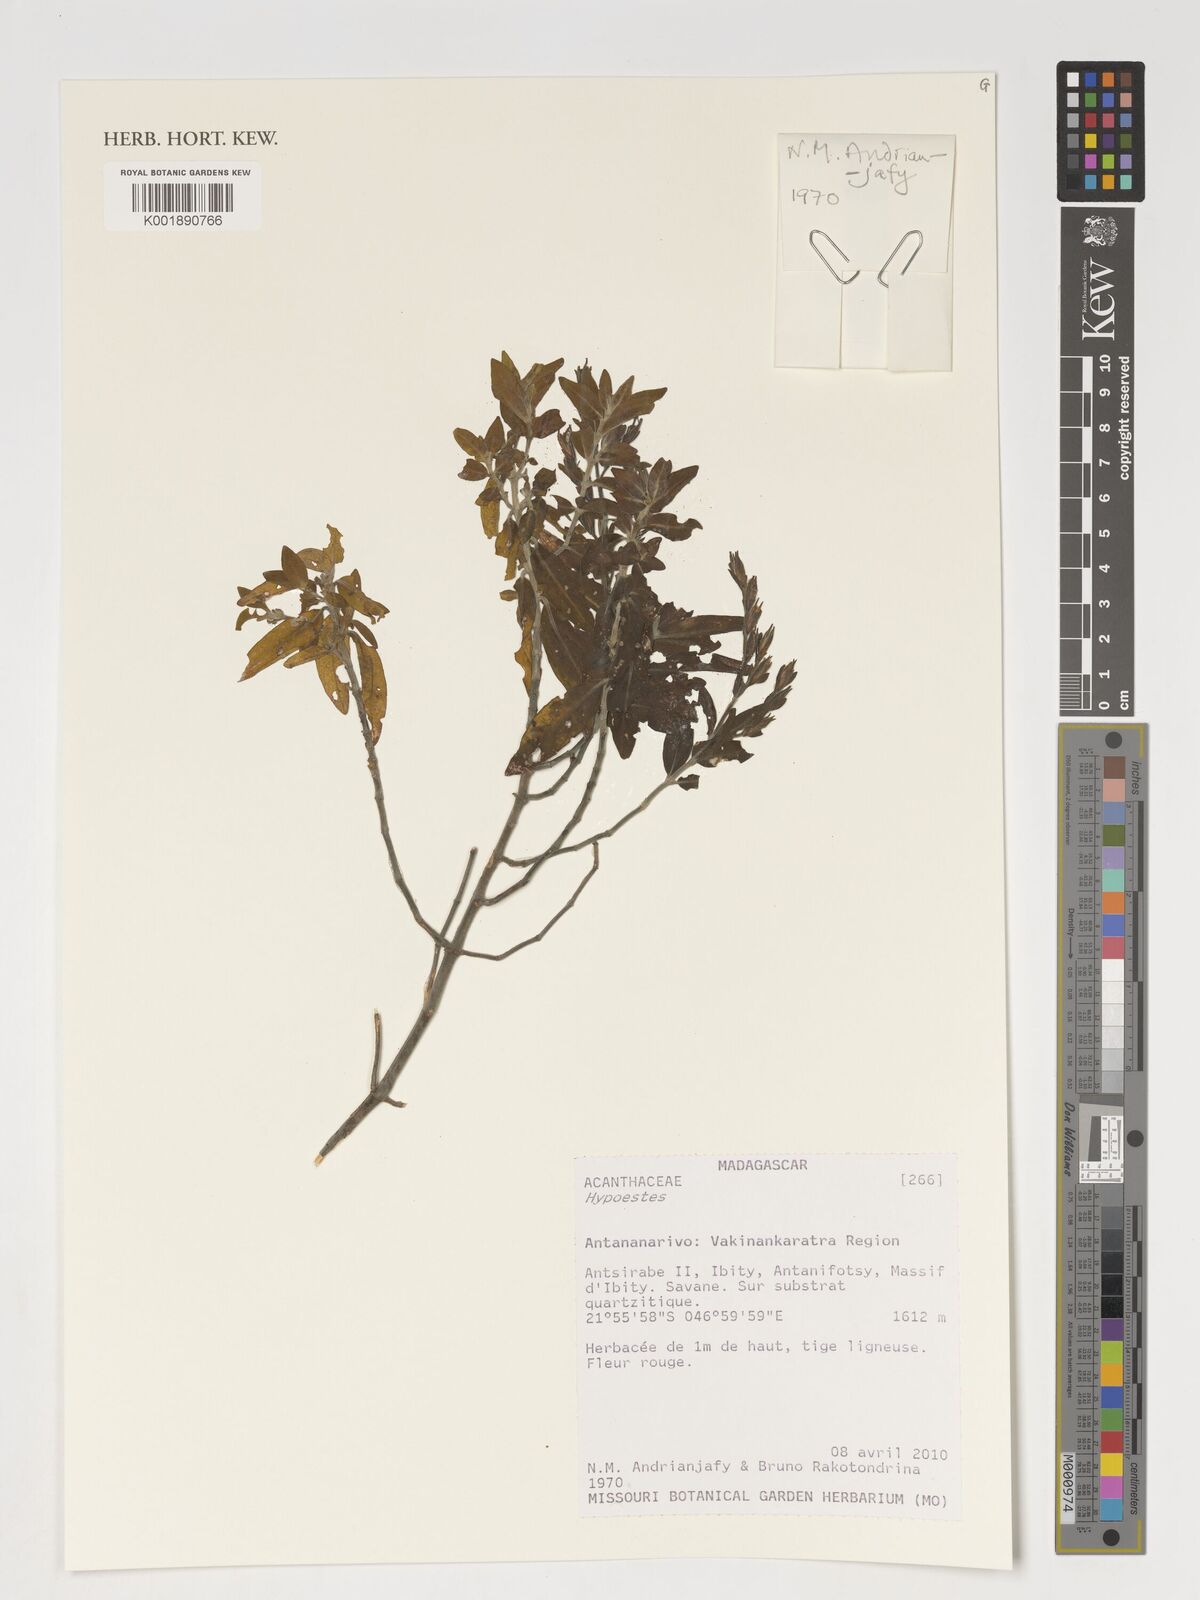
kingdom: Plantae
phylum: Tracheophyta
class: Magnoliopsida
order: Lamiales
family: Acanthaceae
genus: Hypoestes
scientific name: Hypoestes
